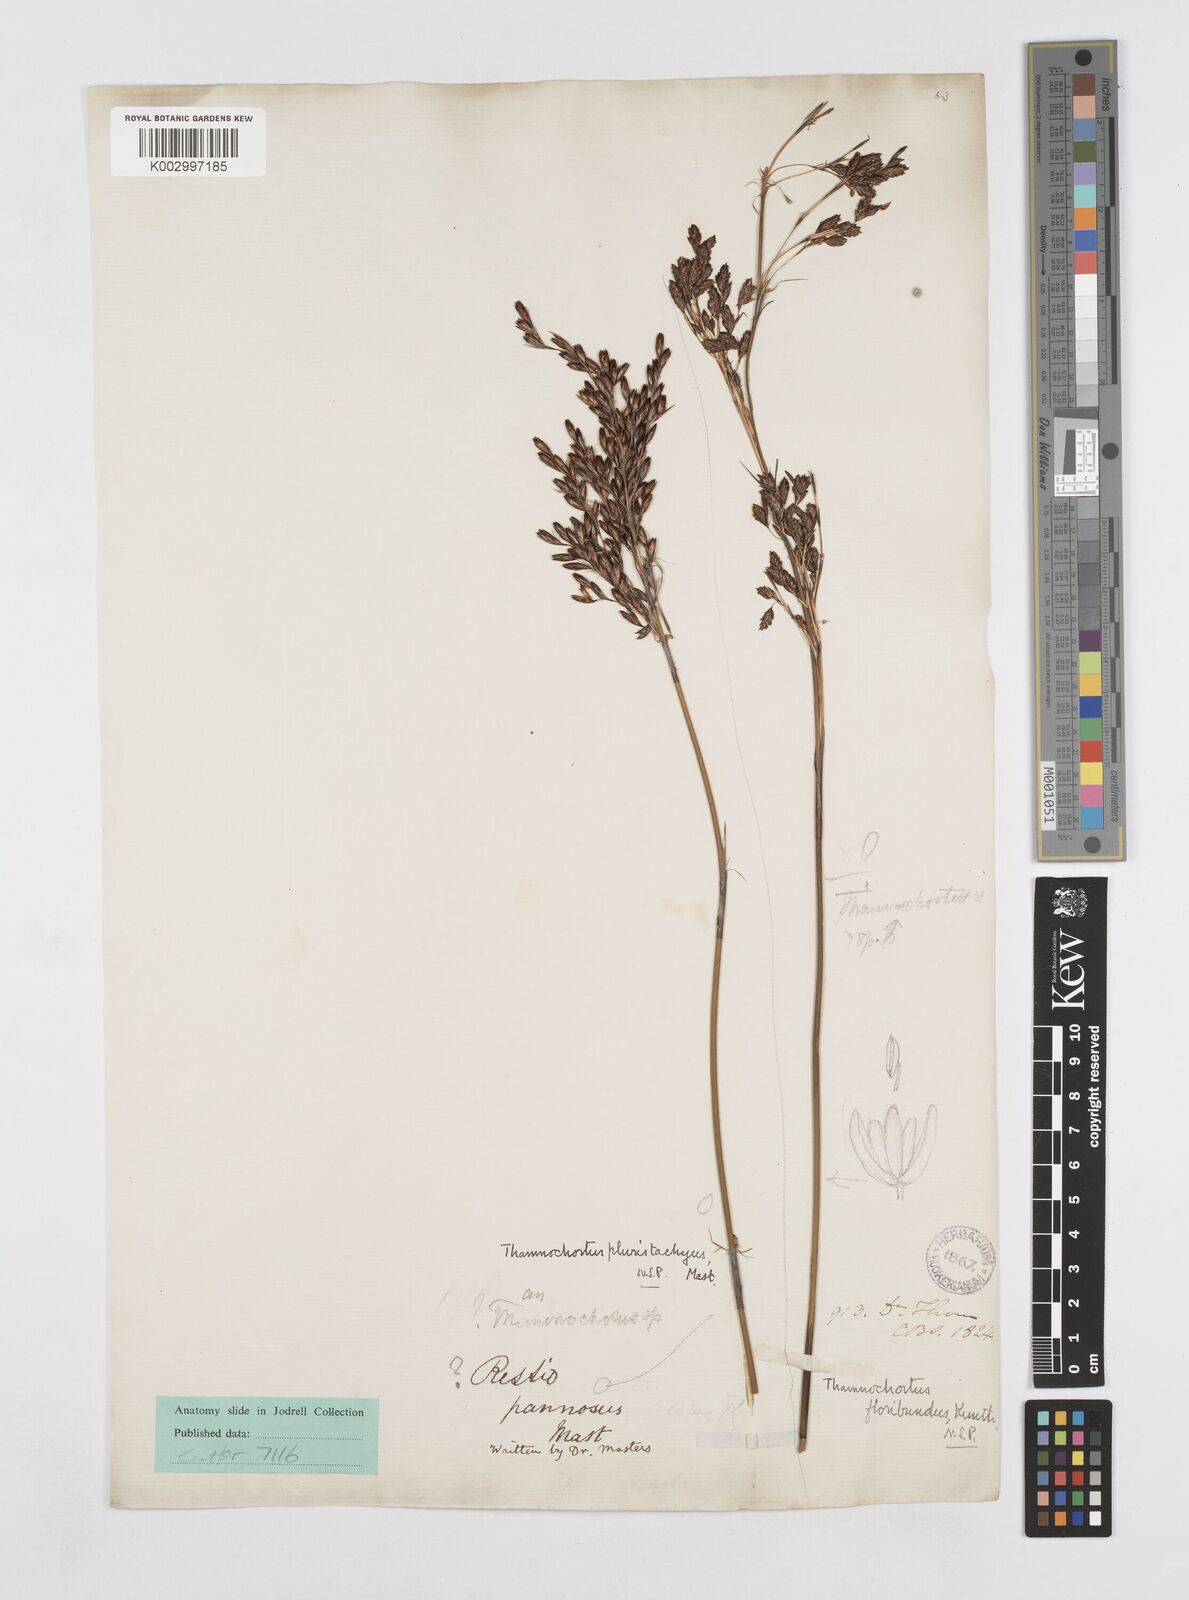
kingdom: Plantae
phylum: Tracheophyta
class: Liliopsida
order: Poales
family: Restionaceae
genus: Thamnochortus
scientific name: Thamnochortus pluristachyus
